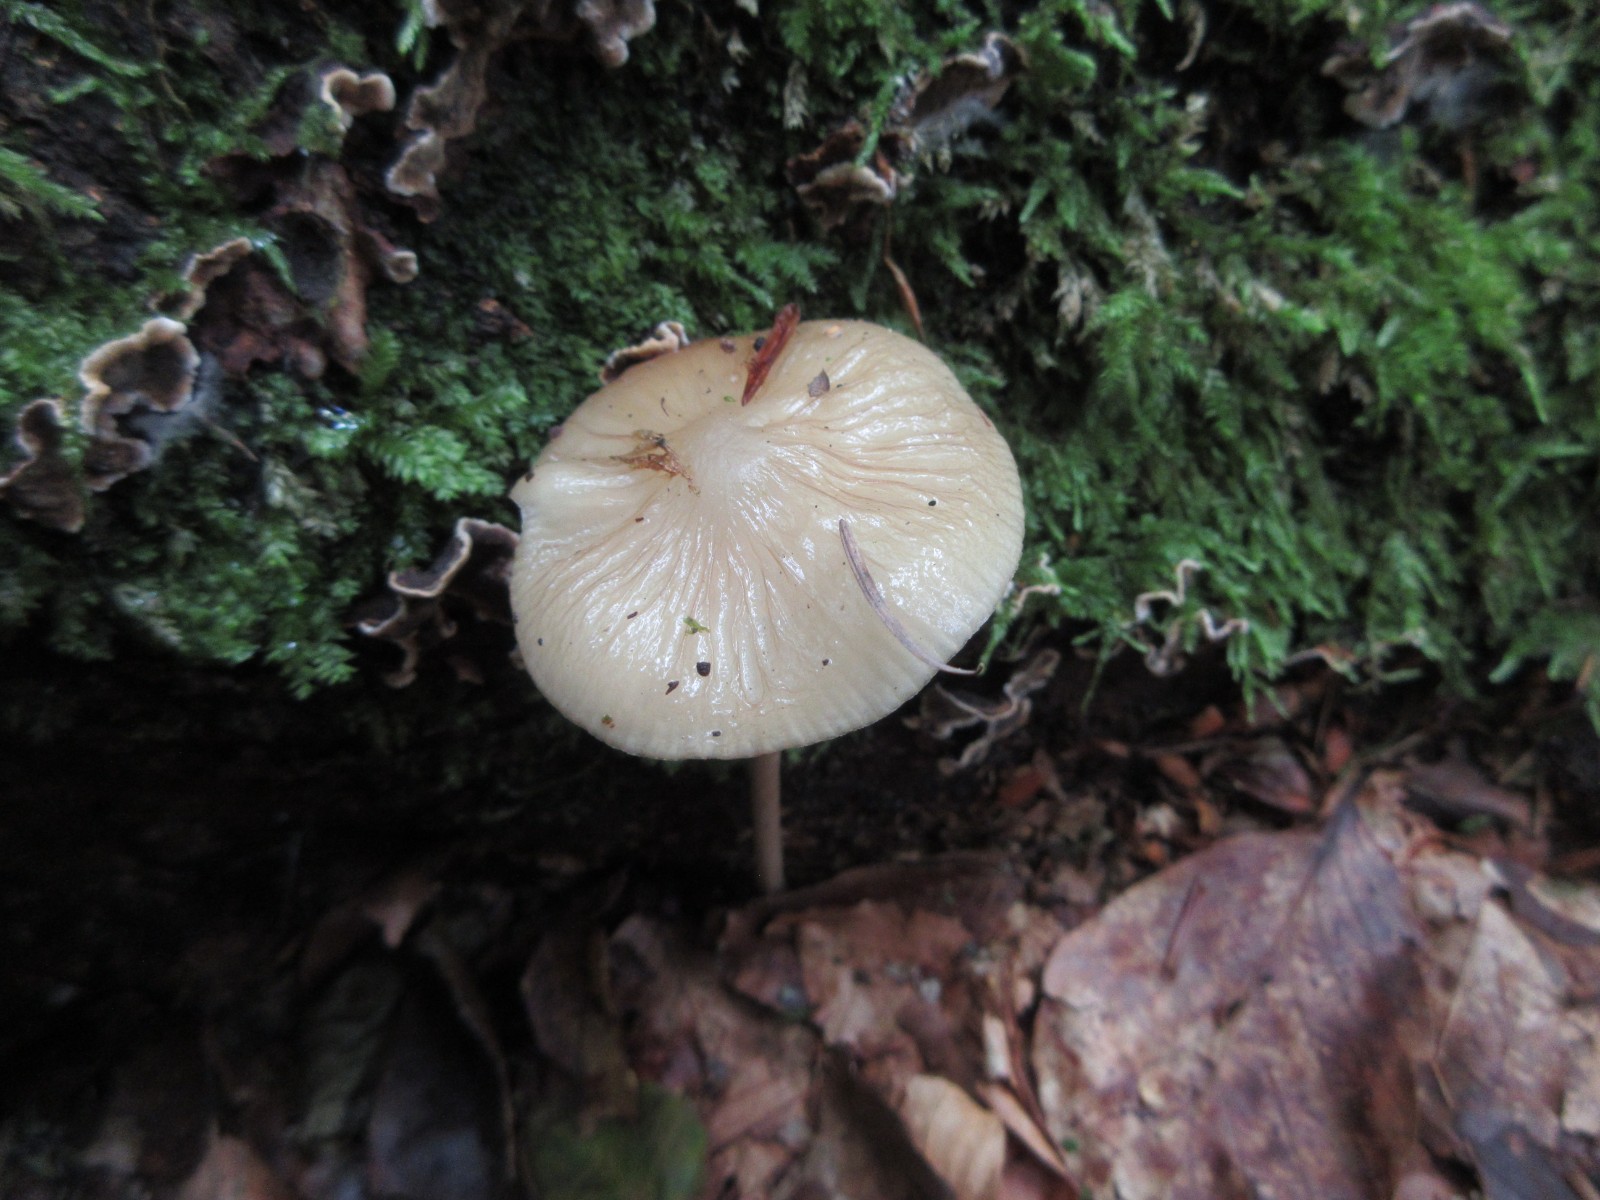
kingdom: Fungi
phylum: Basidiomycota
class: Agaricomycetes
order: Agaricales
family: Physalacriaceae
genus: Hymenopellis
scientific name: Hymenopellis radicata
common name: almindelig pælerodshat
